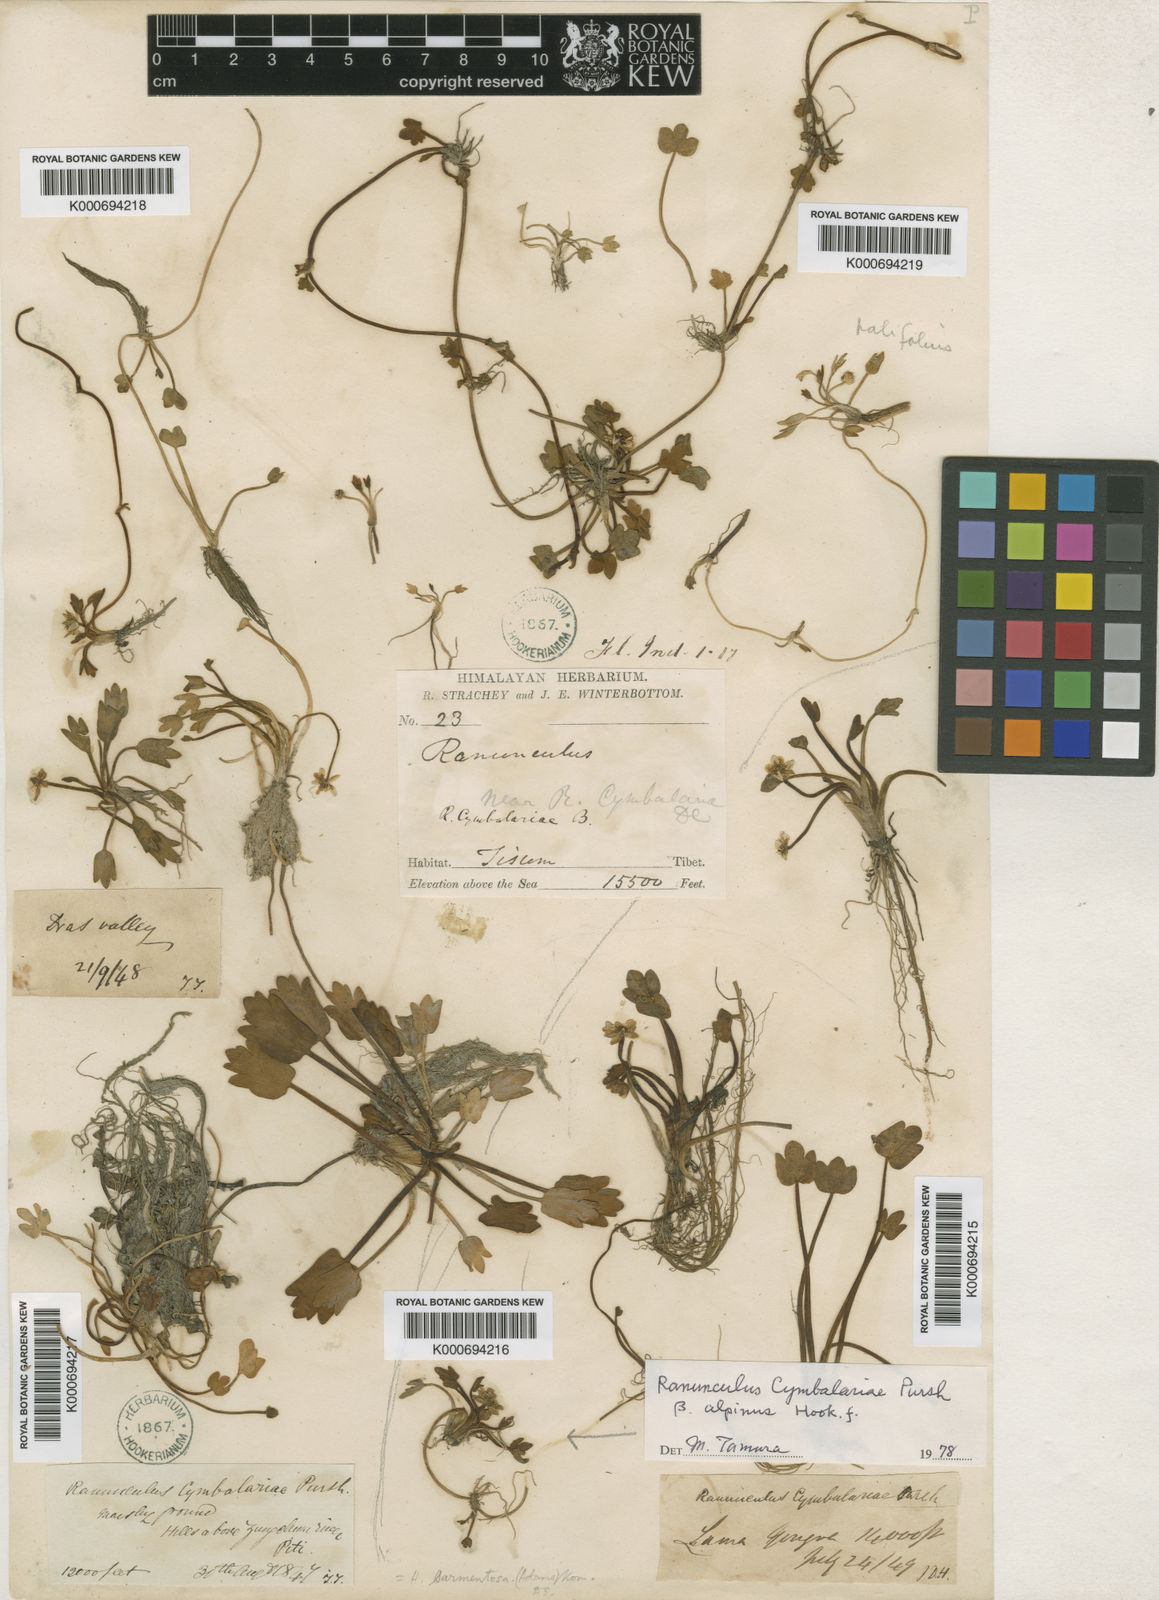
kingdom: Plantae
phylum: Tracheophyta
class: Magnoliopsida
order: Ranunculales
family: Ranunculaceae
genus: Halerpestes
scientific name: Halerpestes tricuspis
